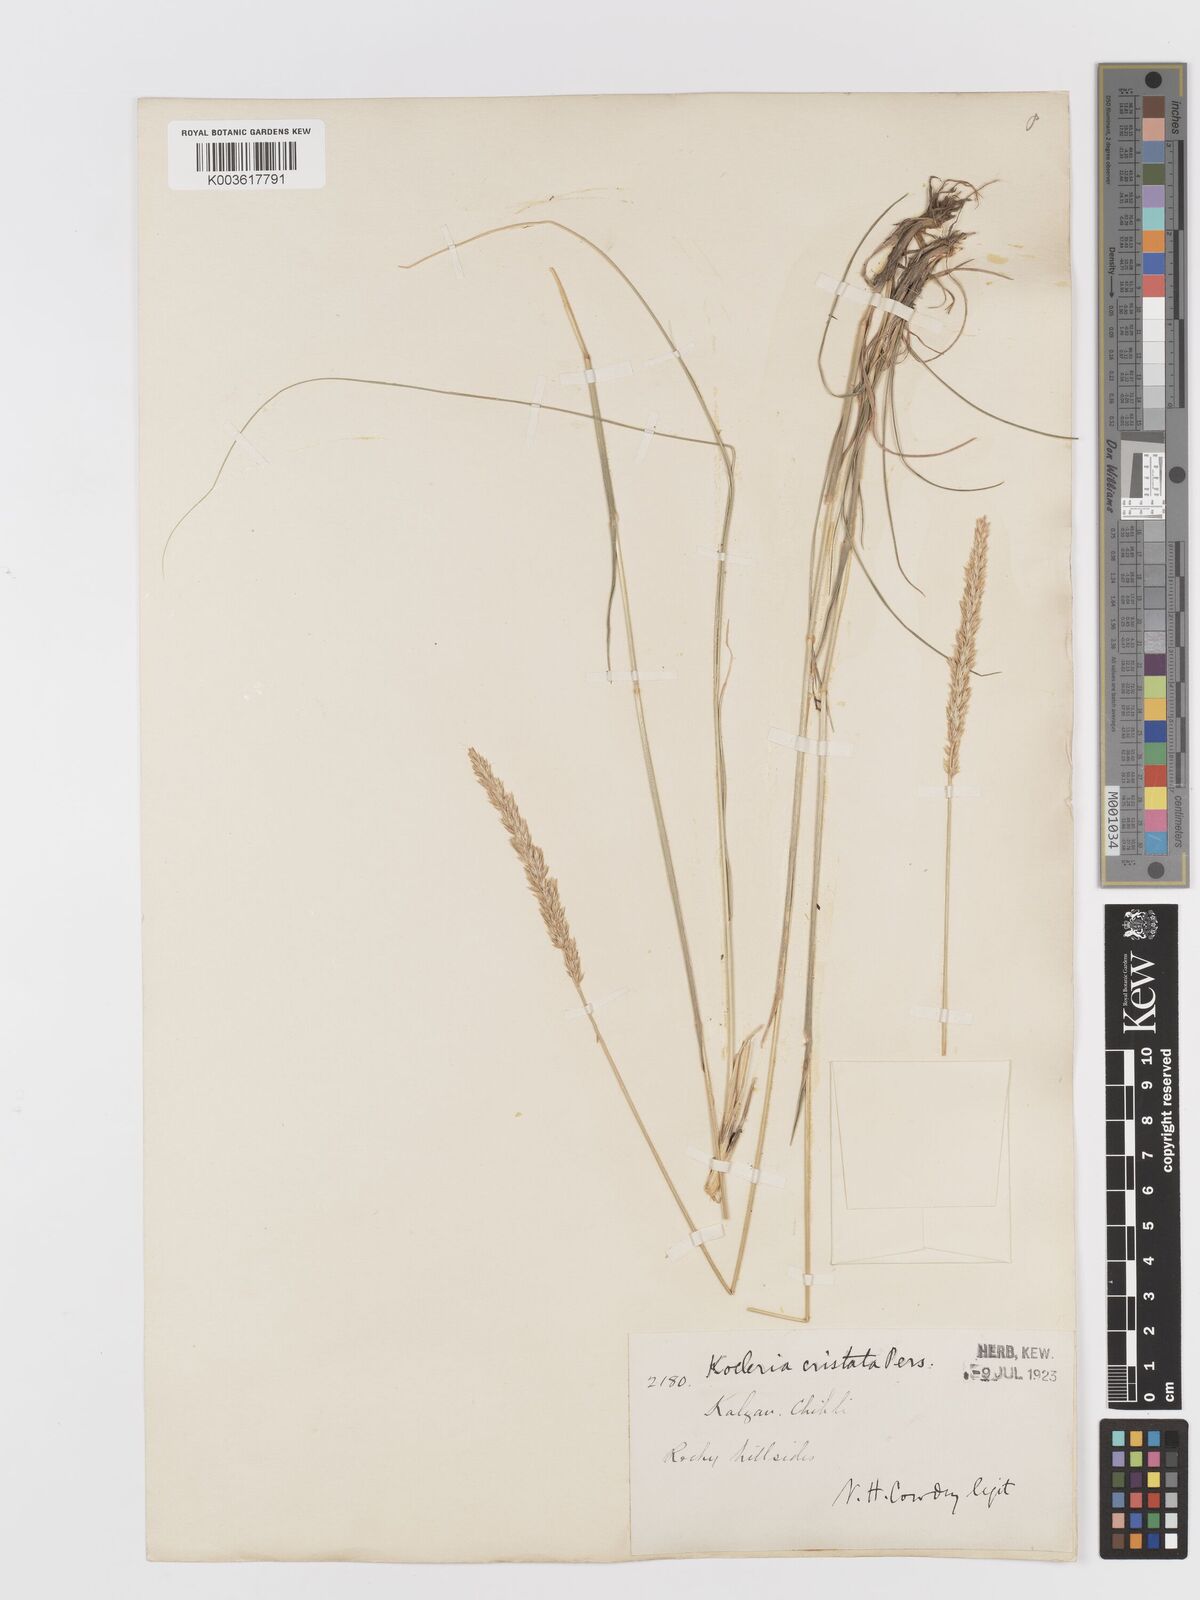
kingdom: Plantae
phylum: Tracheophyta
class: Liliopsida
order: Poales
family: Poaceae
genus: Koeleria
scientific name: Koeleria macrantha
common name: Crested hair-grass
